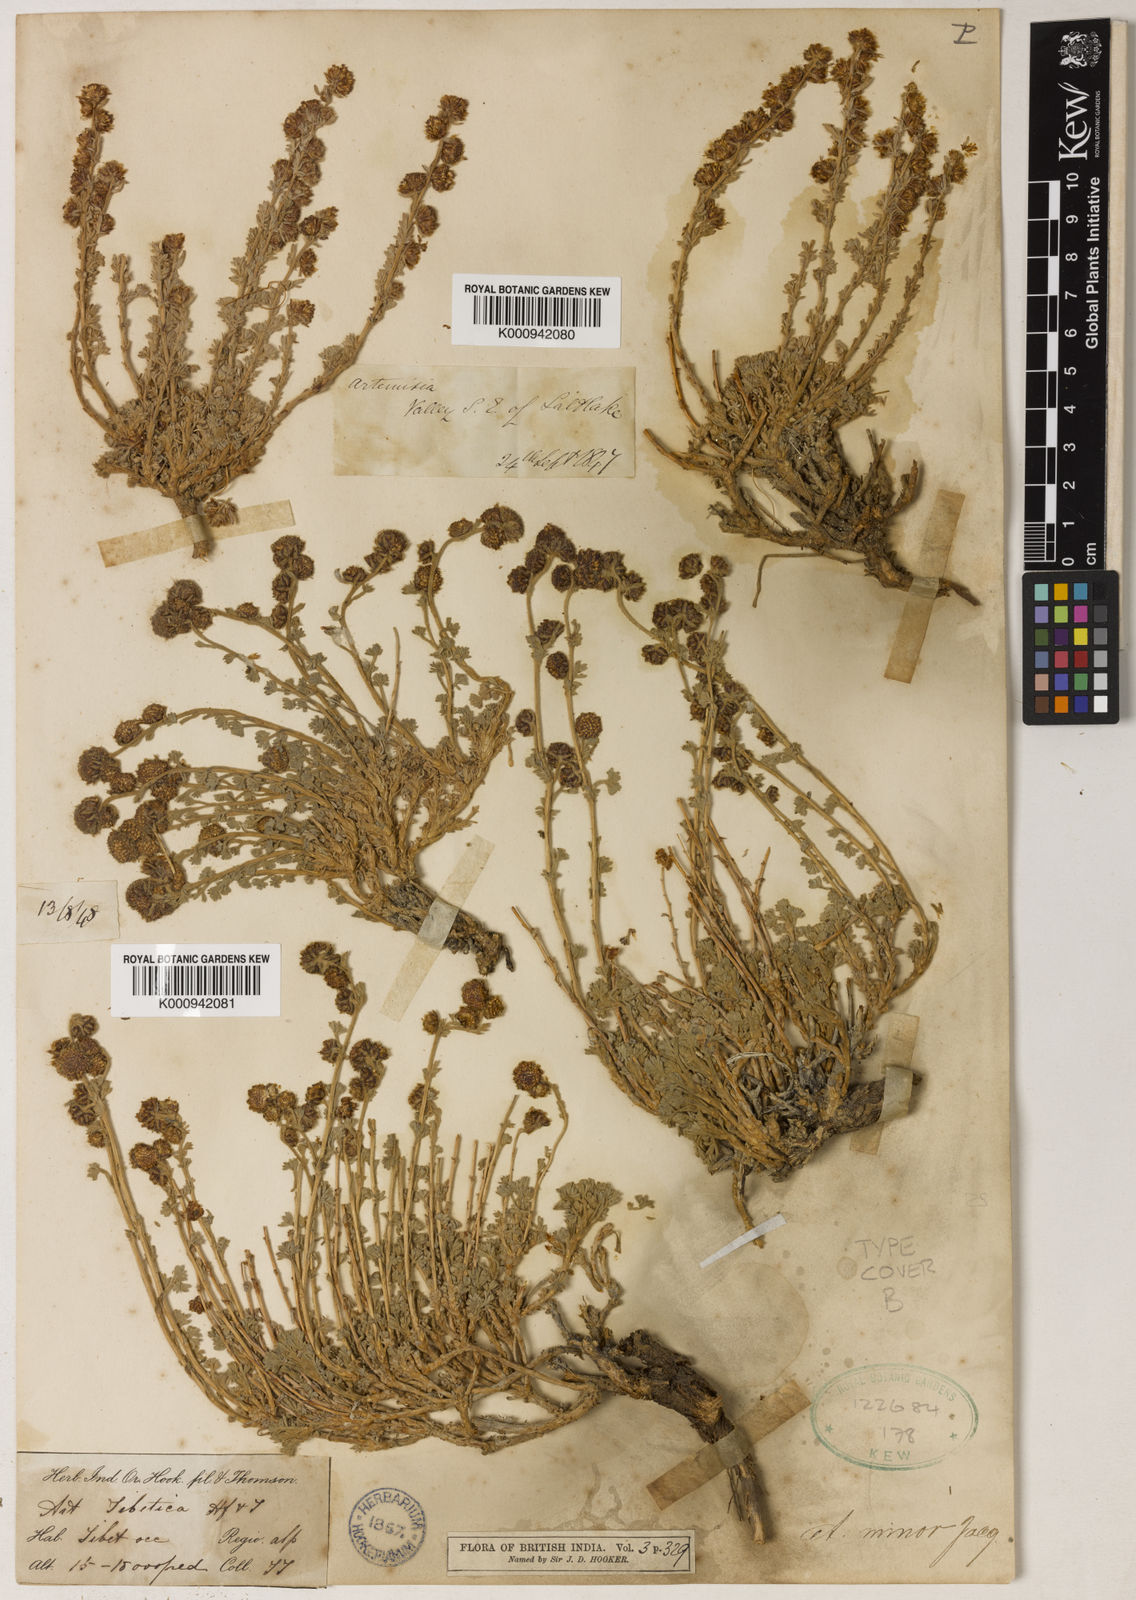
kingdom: Plantae
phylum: Tracheophyta
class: Magnoliopsida
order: Asterales
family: Asteraceae
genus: Artemisia
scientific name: Artemisia minor
